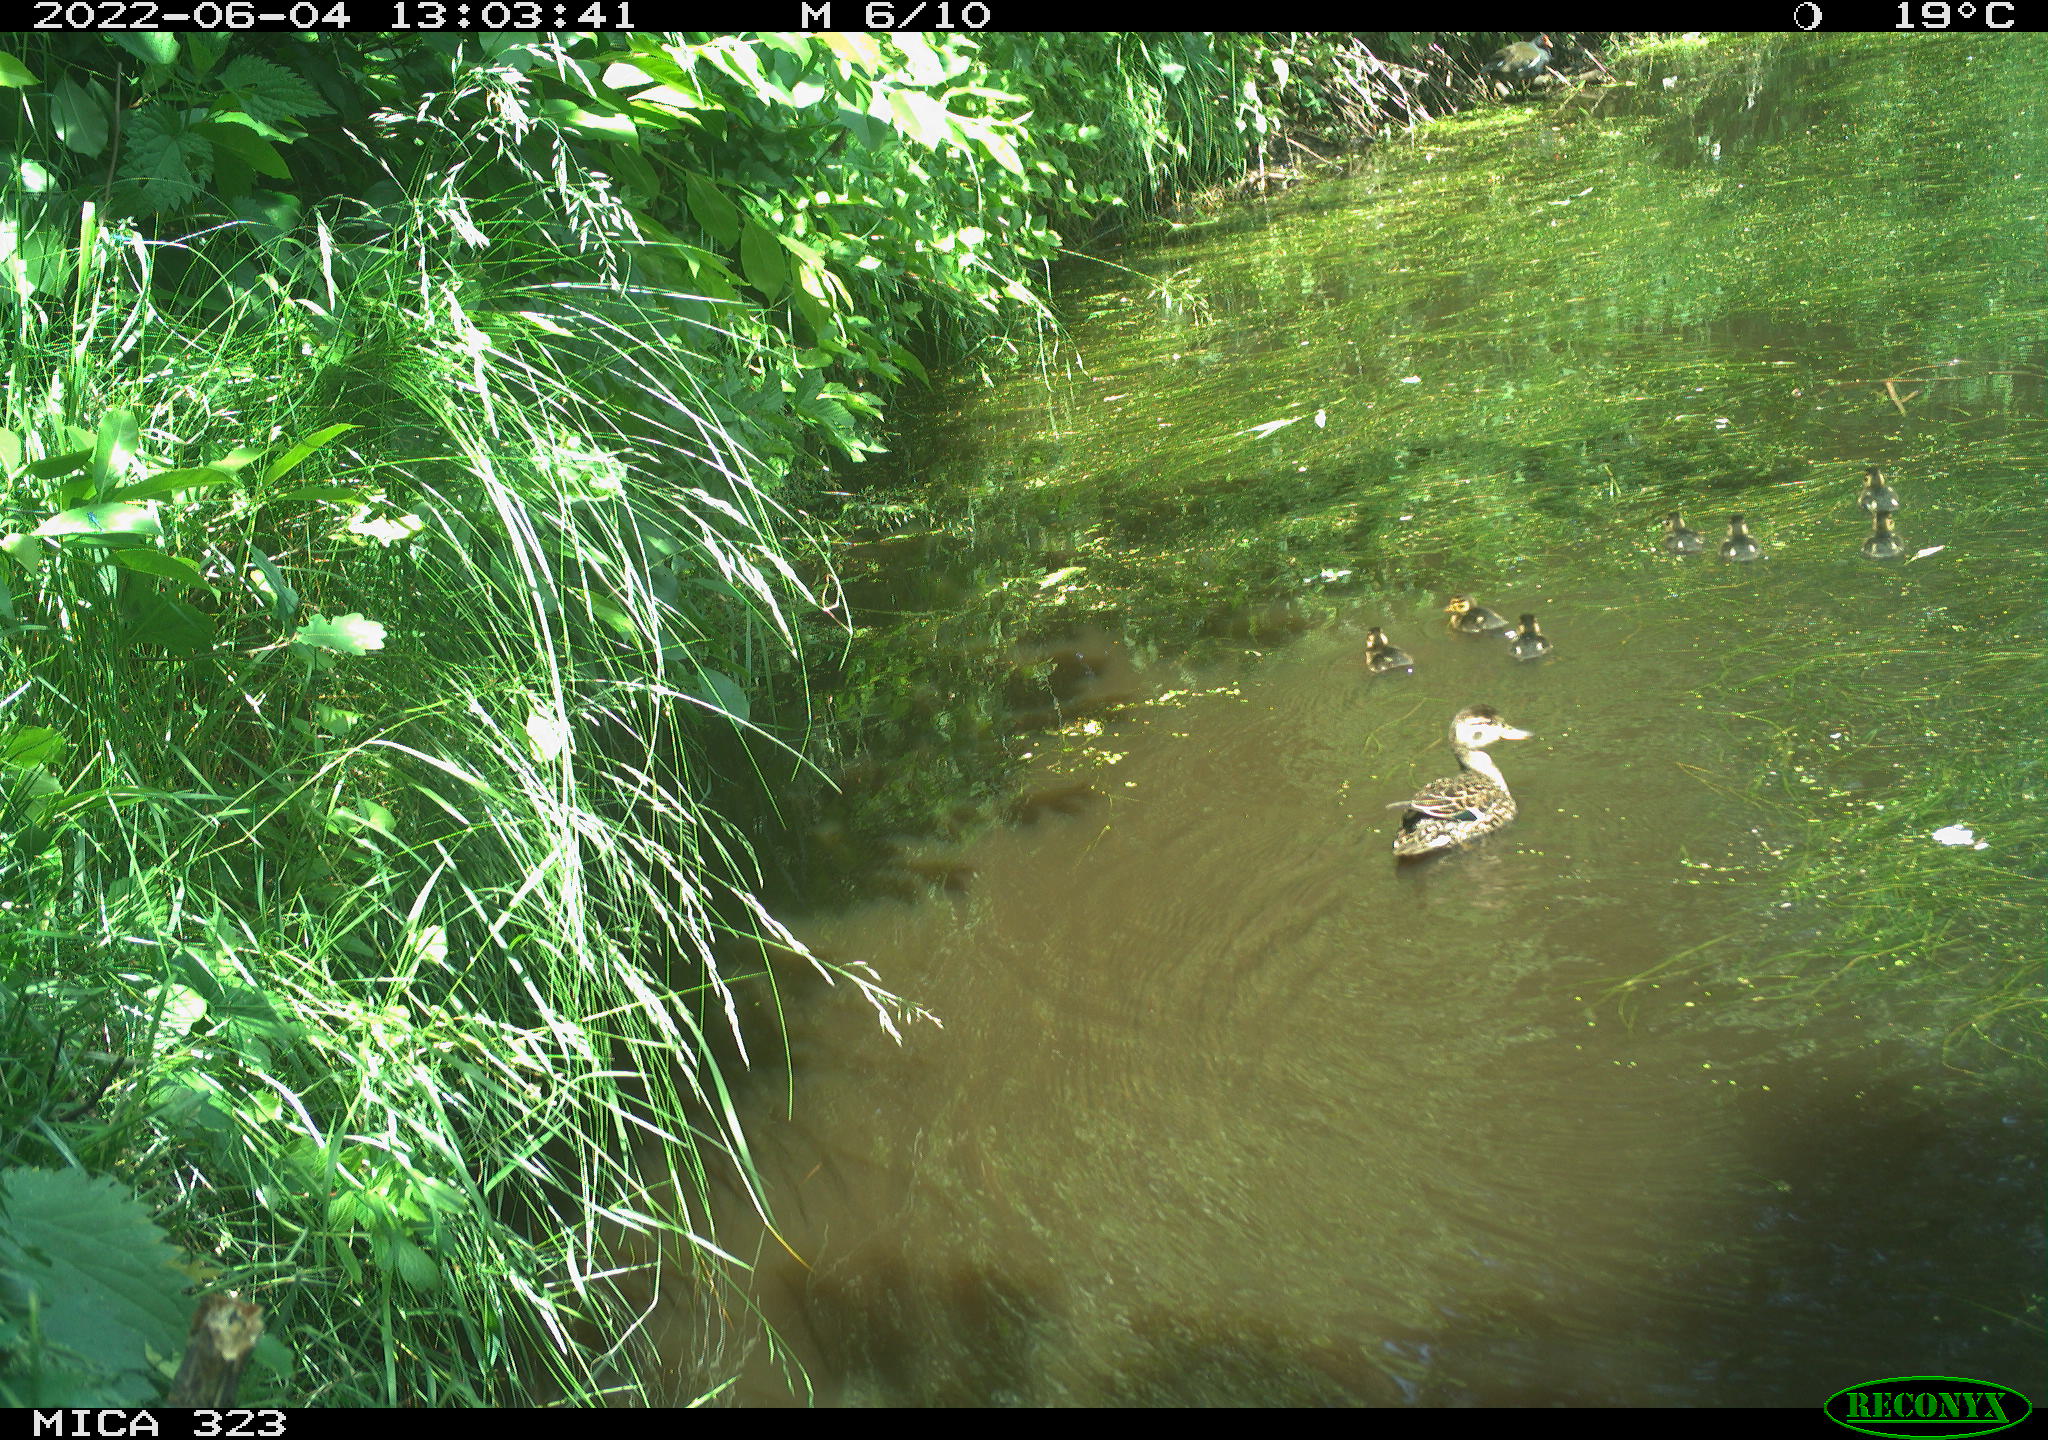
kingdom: Animalia
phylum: Chordata
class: Aves
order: Anseriformes
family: Anatidae
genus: Anas
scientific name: Anas platyrhynchos
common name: Mallard
